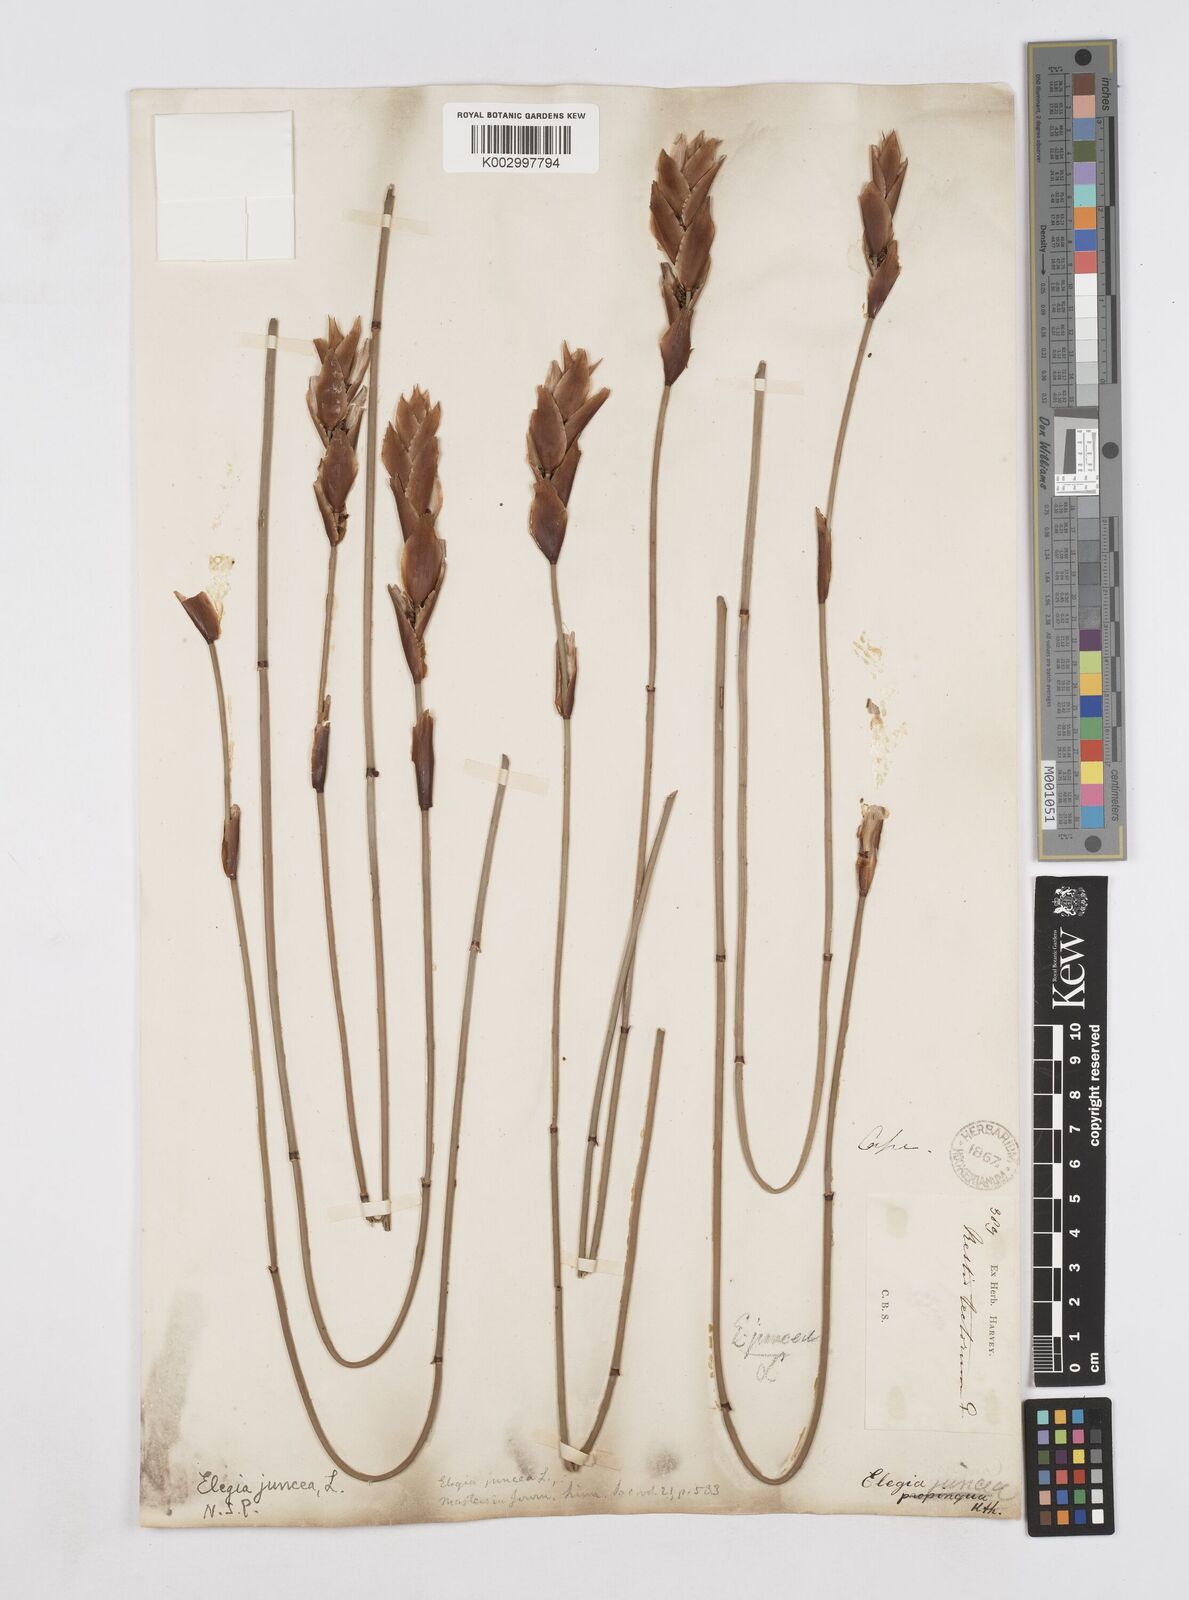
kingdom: Plantae
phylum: Tracheophyta
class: Liliopsida
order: Poales
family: Restionaceae
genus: Elegia
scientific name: Elegia juncea
